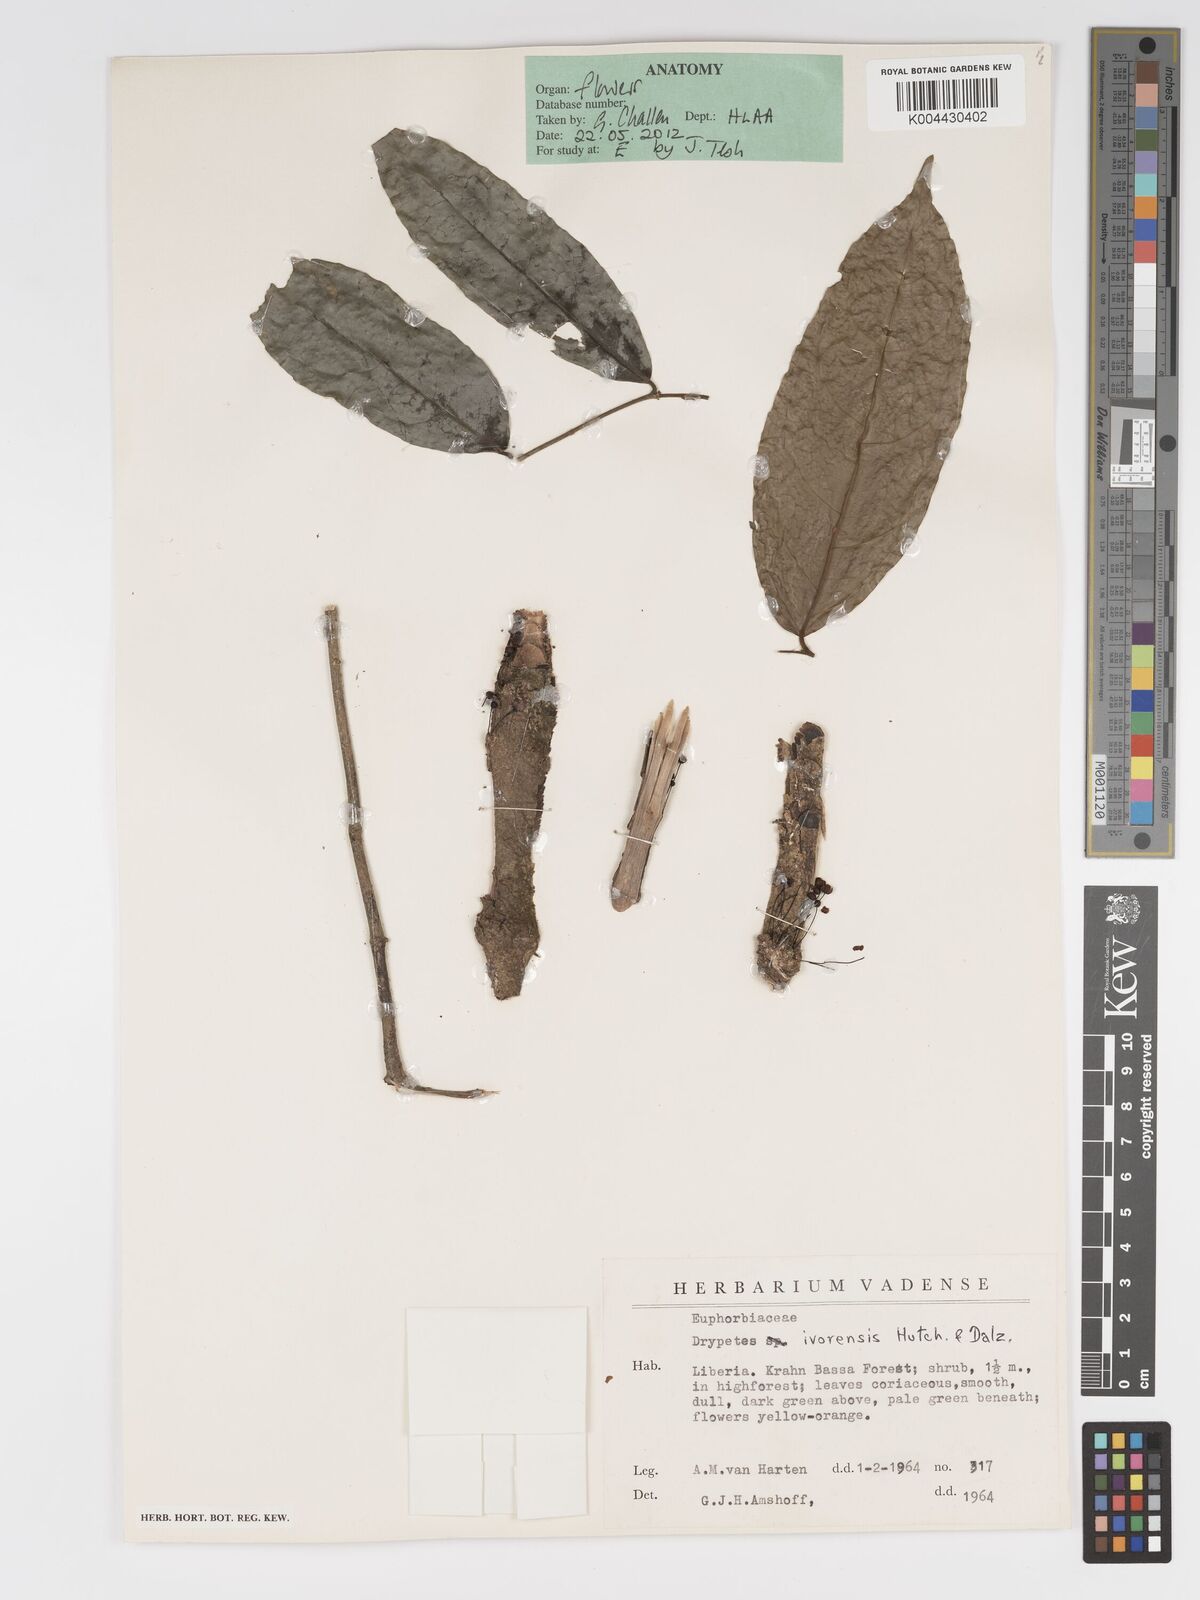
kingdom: Plantae
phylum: Tracheophyta
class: Magnoliopsida
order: Malpighiales
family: Putranjivaceae
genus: Drypetes
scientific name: Drypetes ivorensis
